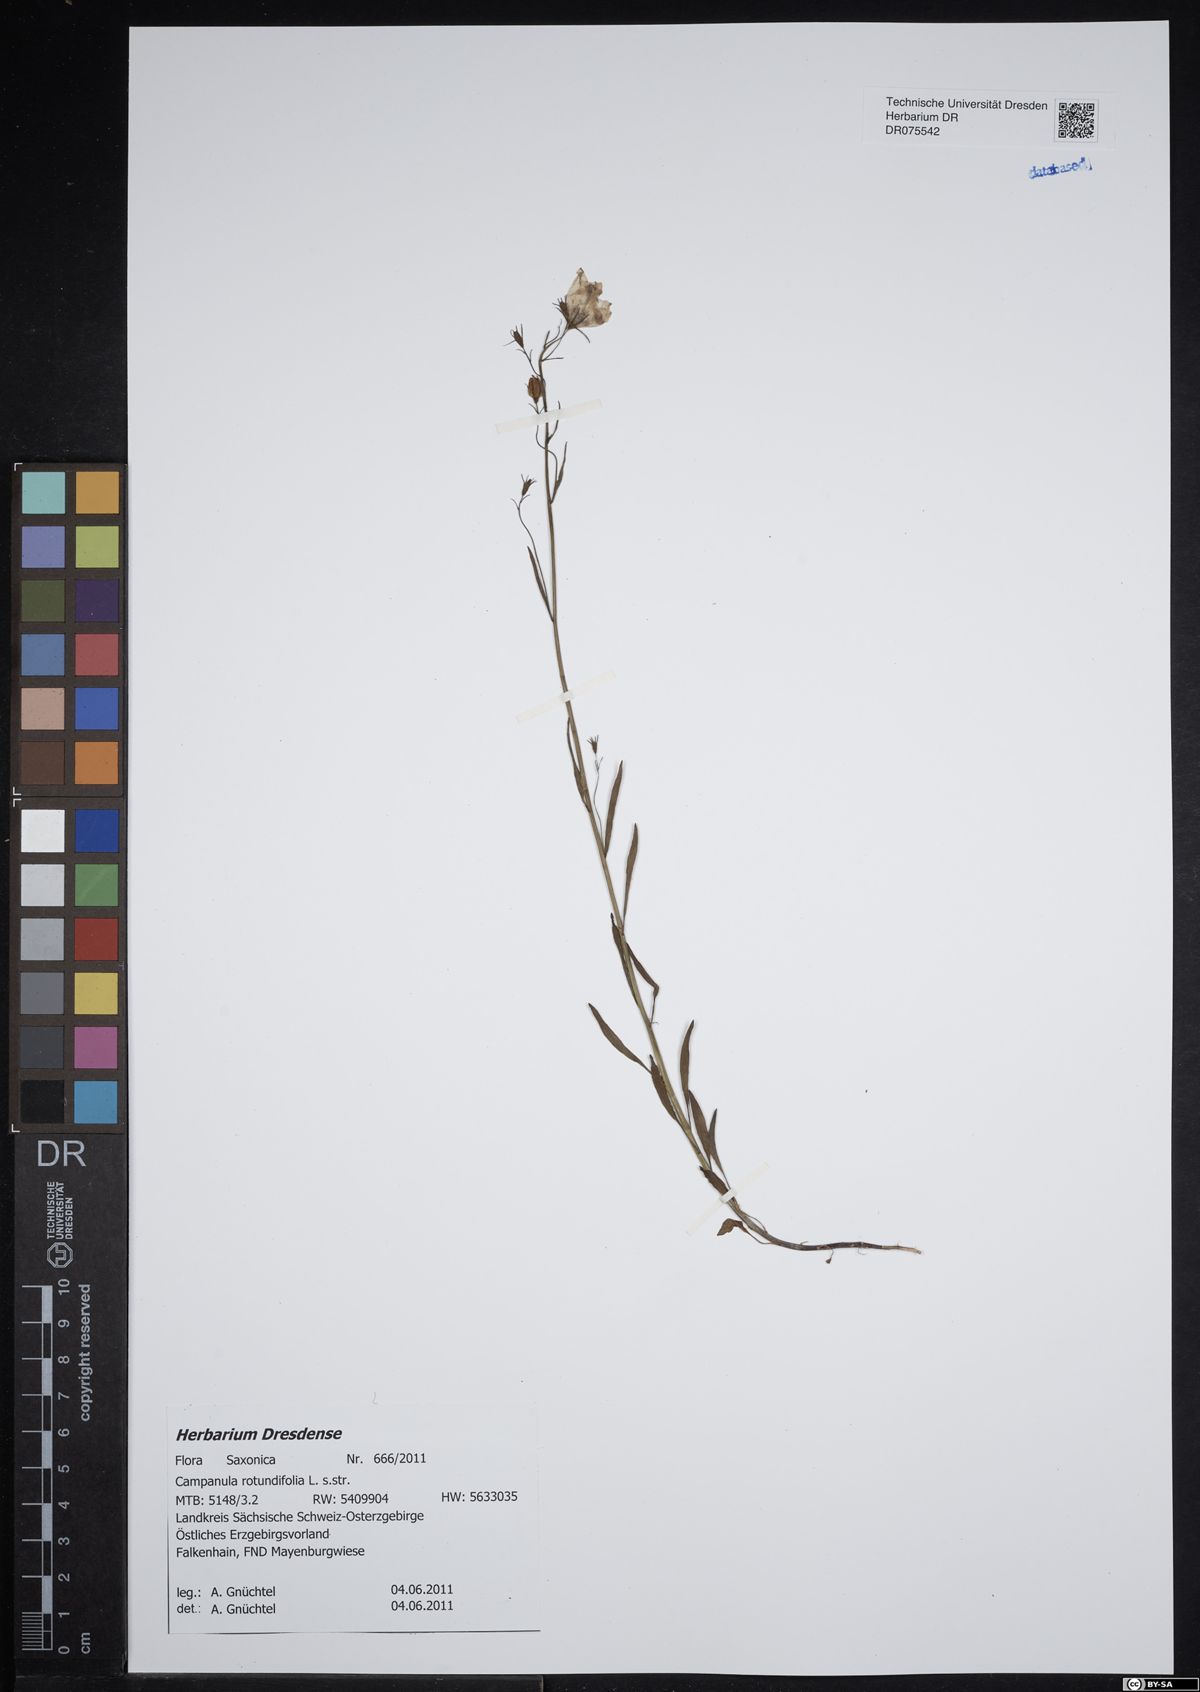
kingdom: Plantae
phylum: Tracheophyta
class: Magnoliopsida
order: Asterales
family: Campanulaceae
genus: Campanula
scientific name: Campanula rotundifolia
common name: Harebell
